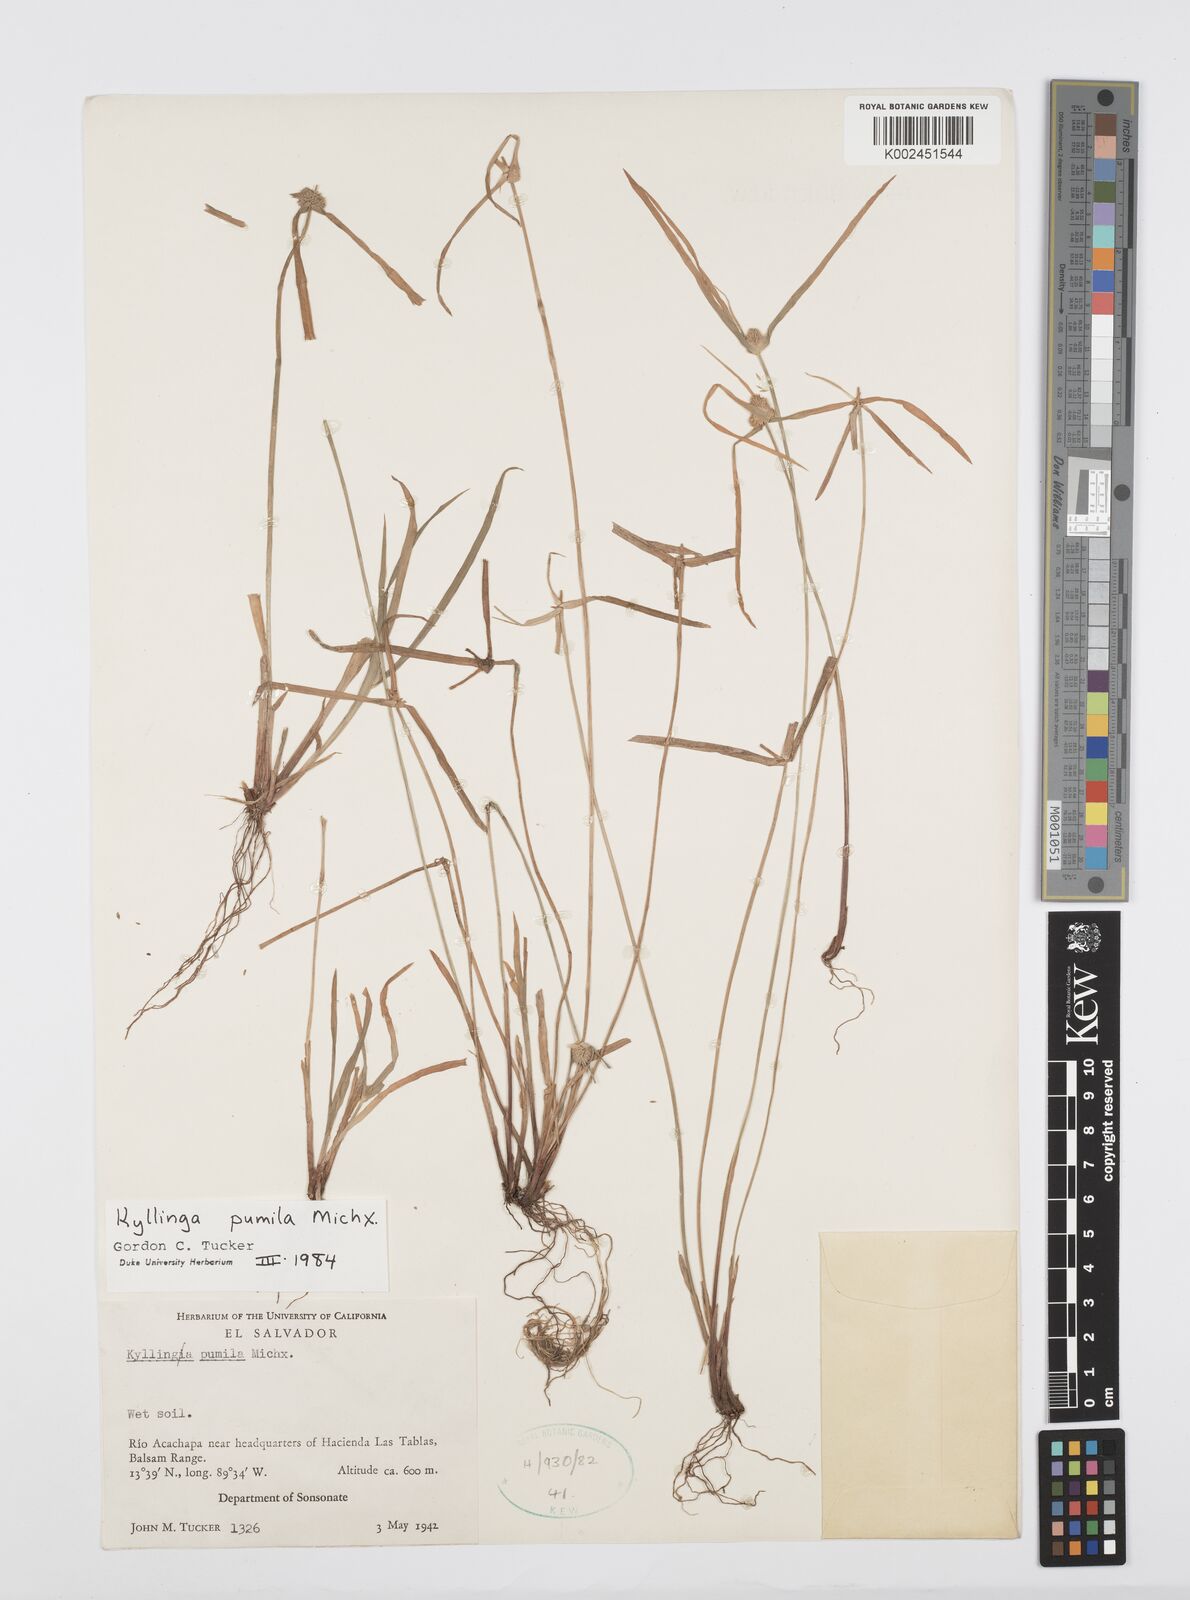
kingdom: Plantae
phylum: Tracheophyta
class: Liliopsida
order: Poales
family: Cyperaceae
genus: Cyperus
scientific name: Cyperus
